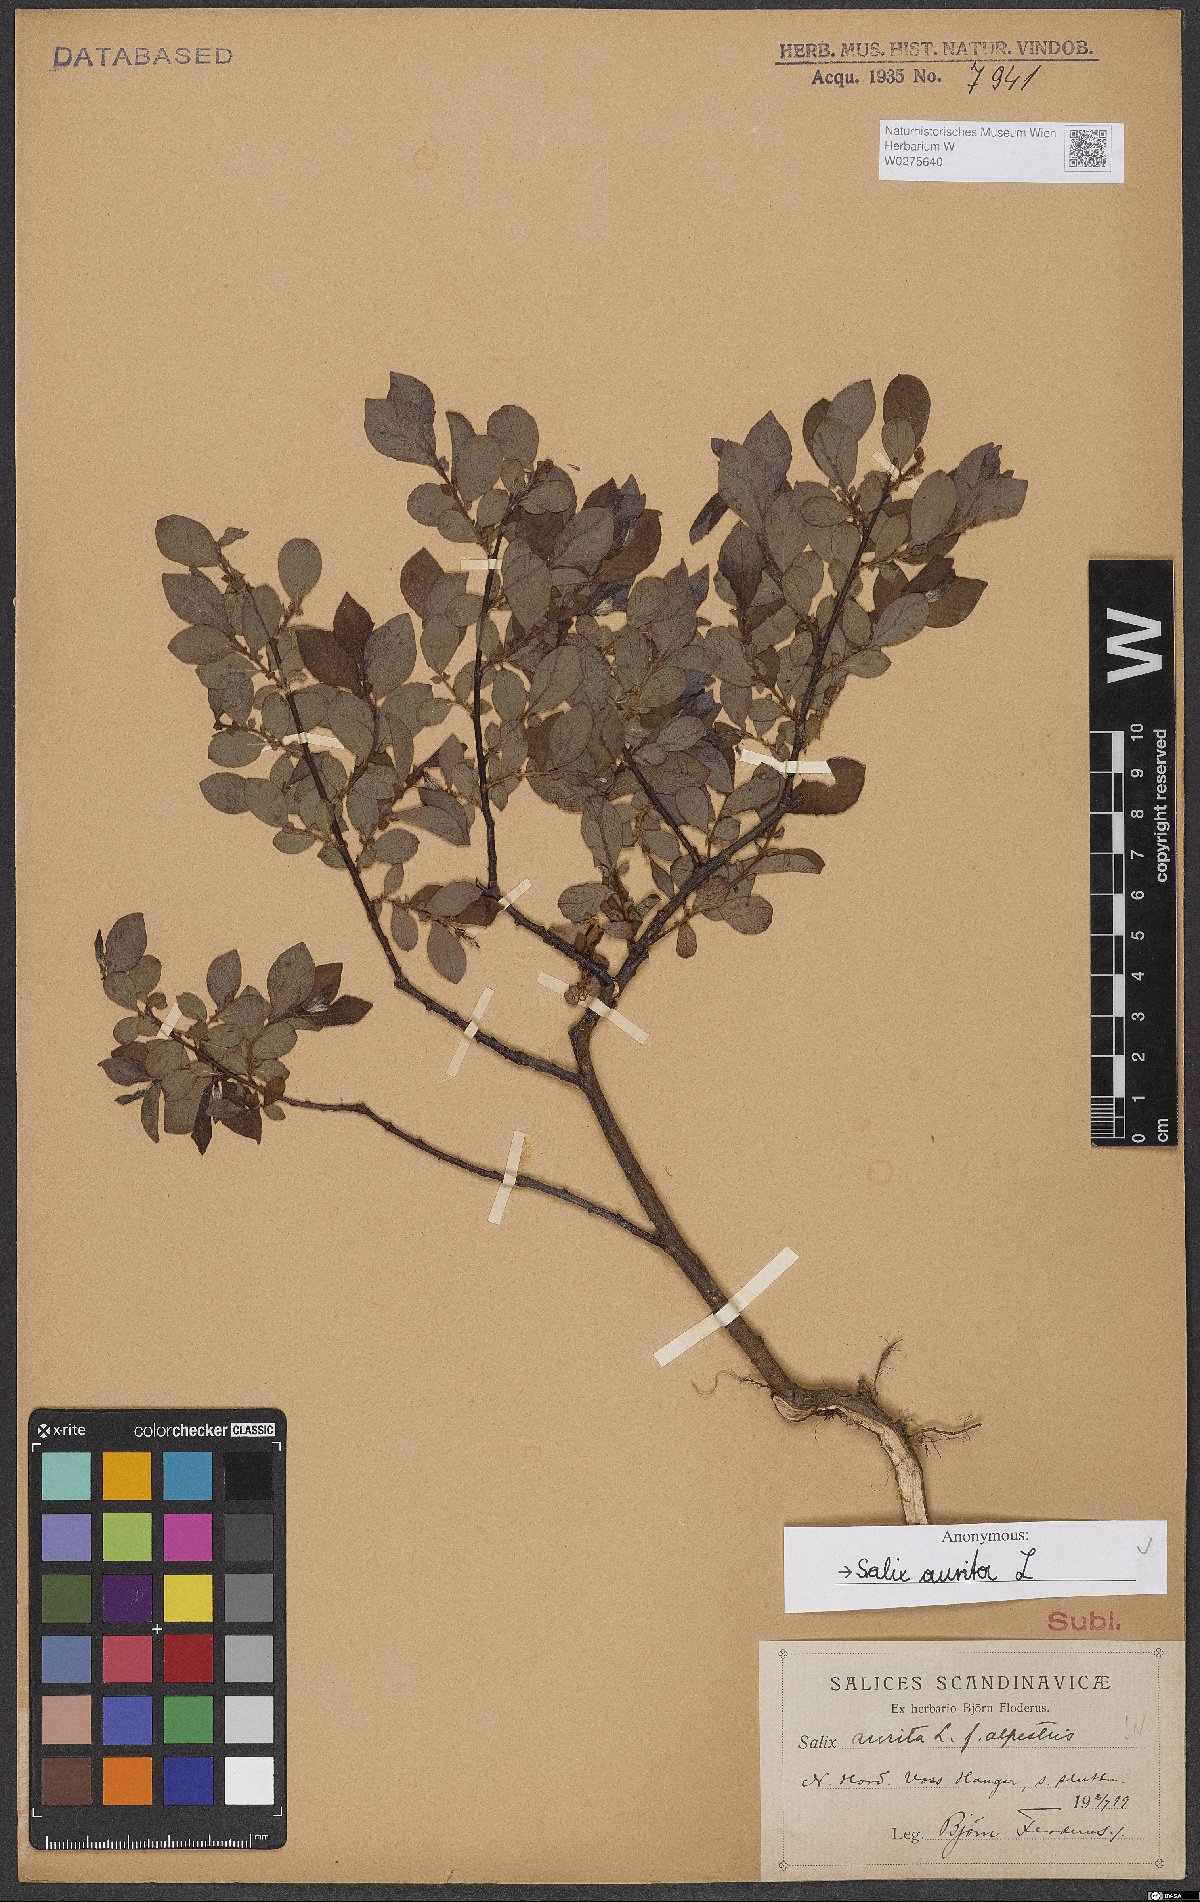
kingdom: Plantae
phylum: Tracheophyta
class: Magnoliopsida
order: Malpighiales
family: Salicaceae
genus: Salix
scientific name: Salix aurita
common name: Eared willow
